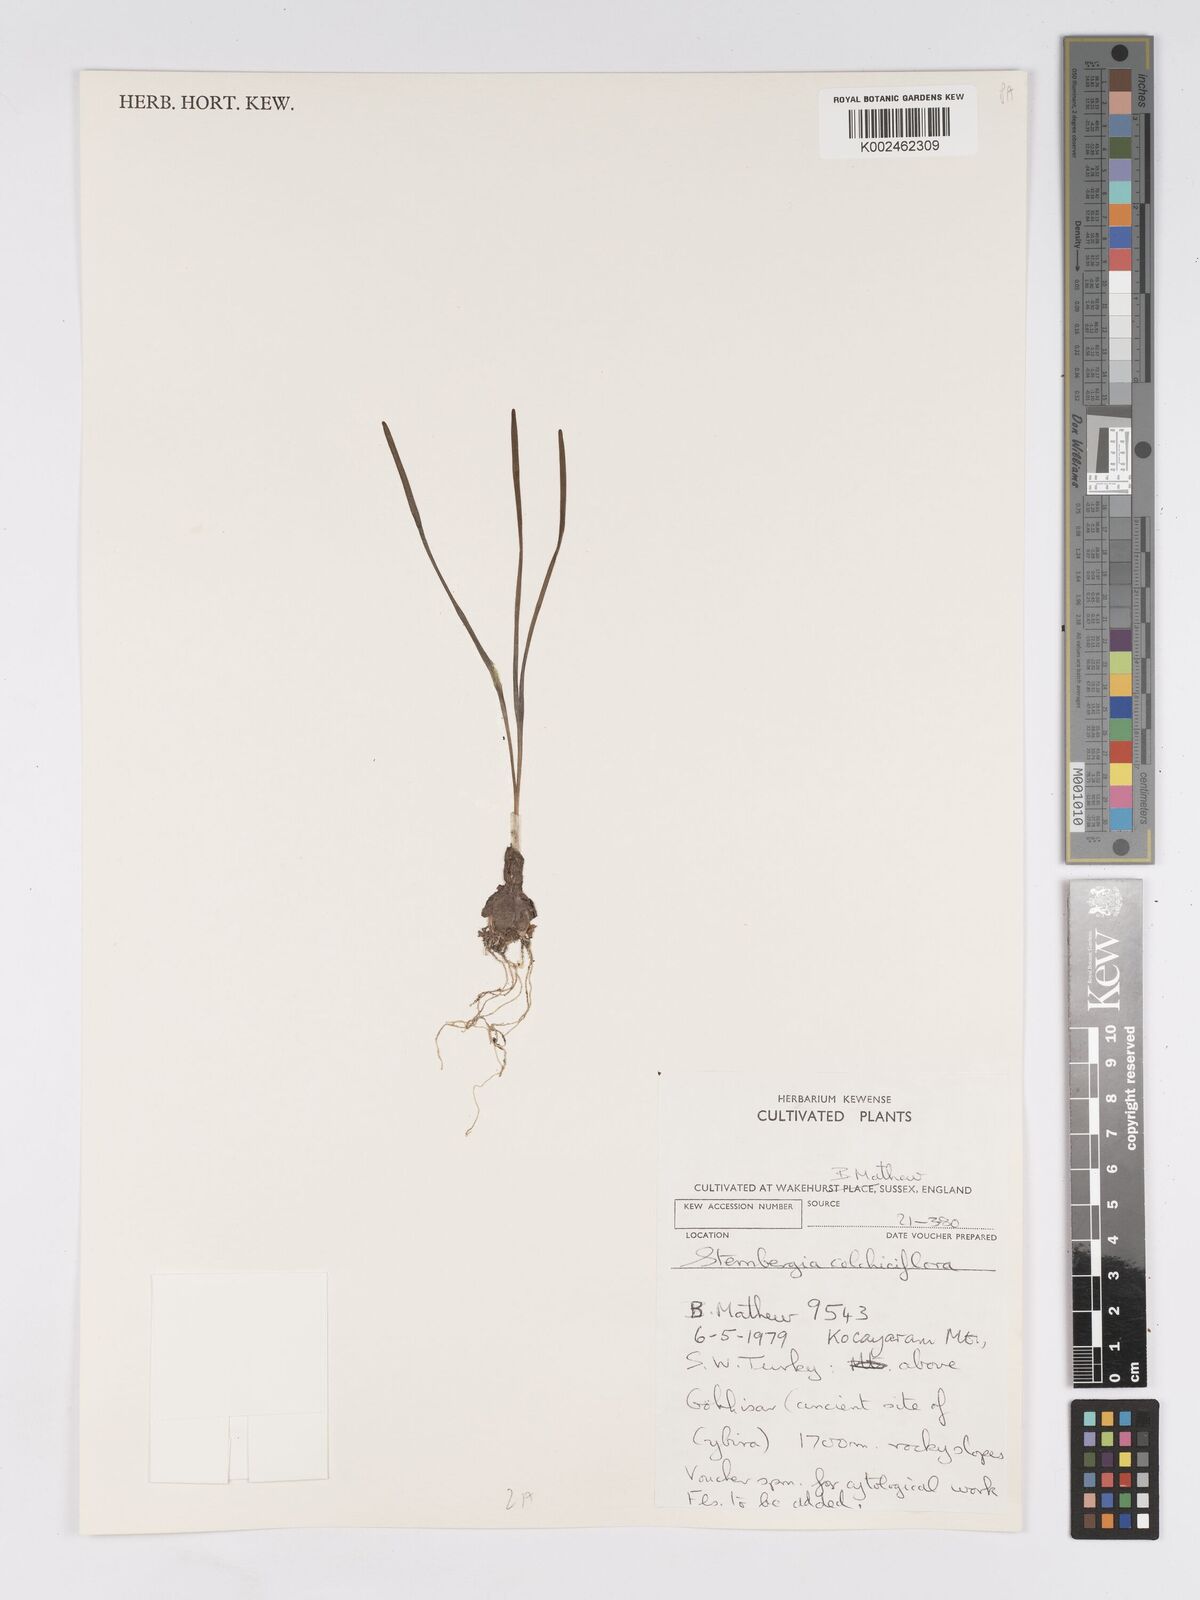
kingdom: Plantae
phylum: Tracheophyta
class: Liliopsida
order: Asparagales
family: Amaryllidaceae
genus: Sternbergia
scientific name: Sternbergia colchiciflora
